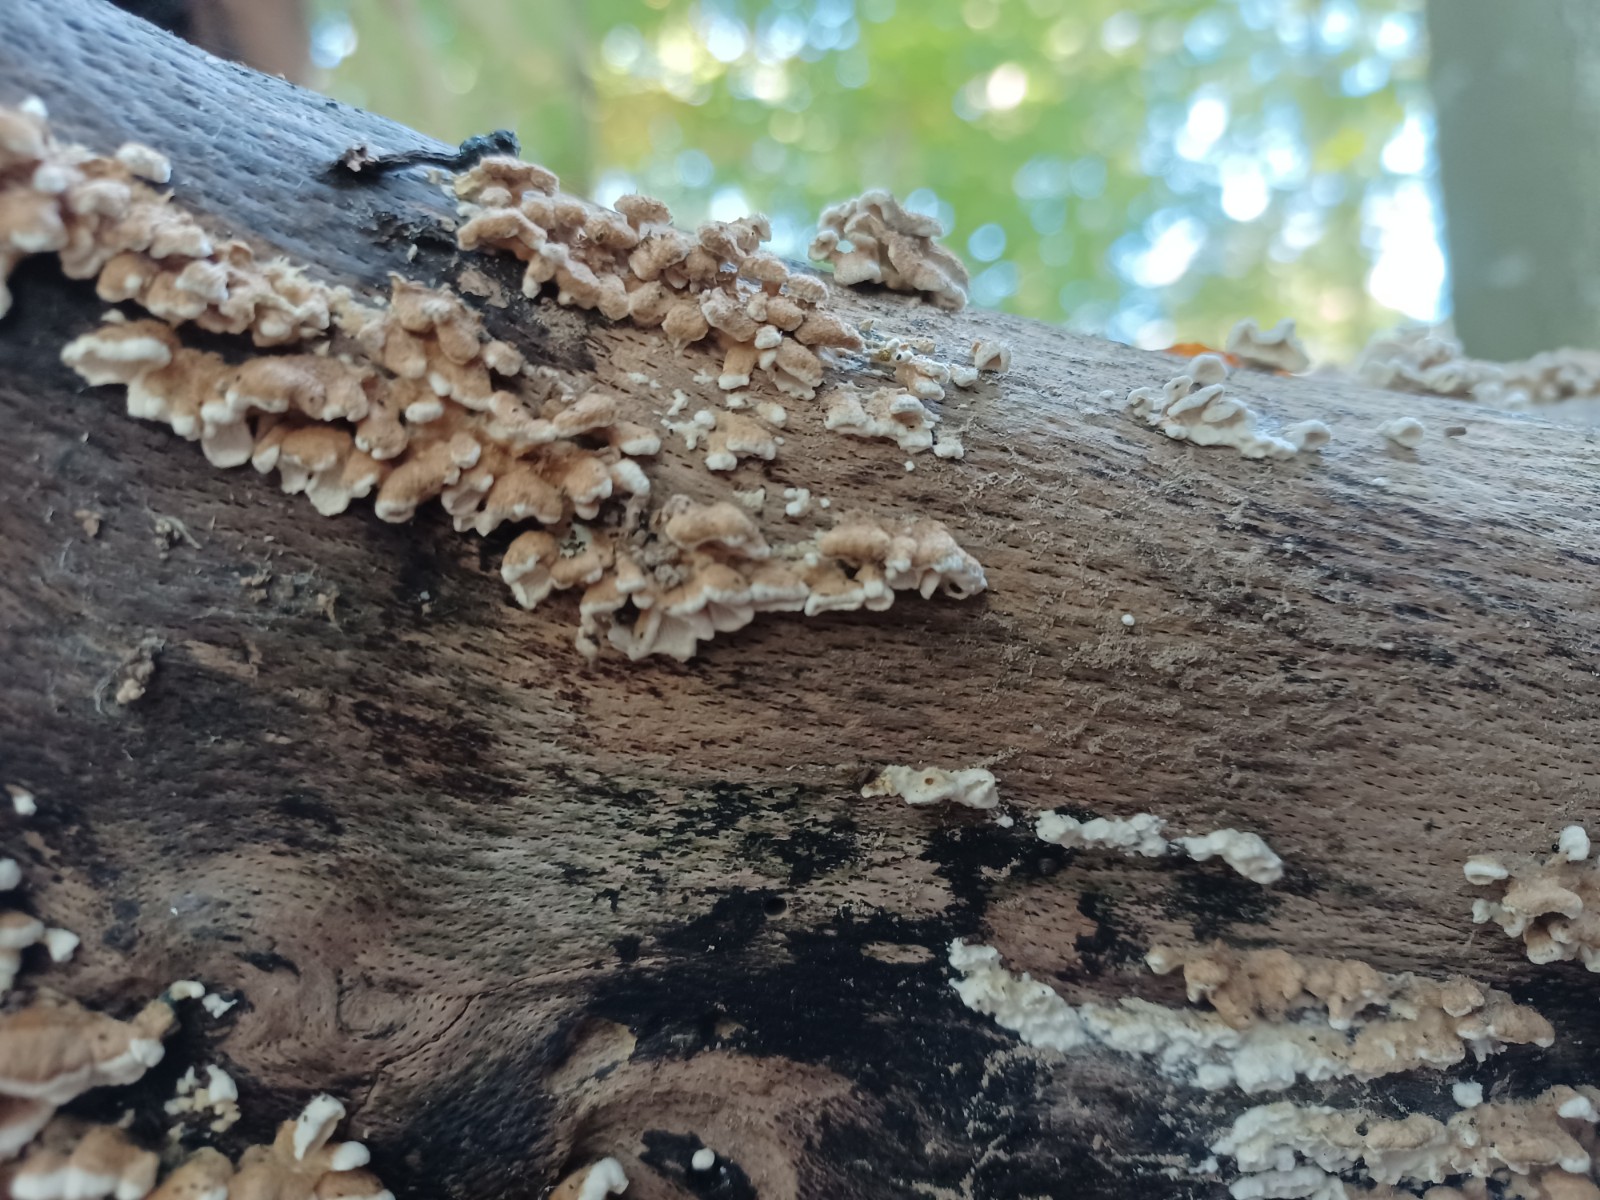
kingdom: Fungi
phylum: Basidiomycota
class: Agaricomycetes
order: Amylocorticiales
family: Amylocorticiaceae
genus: Plicaturopsis
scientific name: Plicaturopsis crispa
